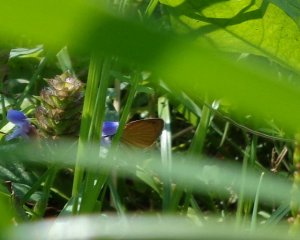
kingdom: Animalia
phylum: Arthropoda
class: Insecta
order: Lepidoptera
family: Hesperiidae
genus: Ancyloxypha
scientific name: Ancyloxypha numitor
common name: Least Skipper
